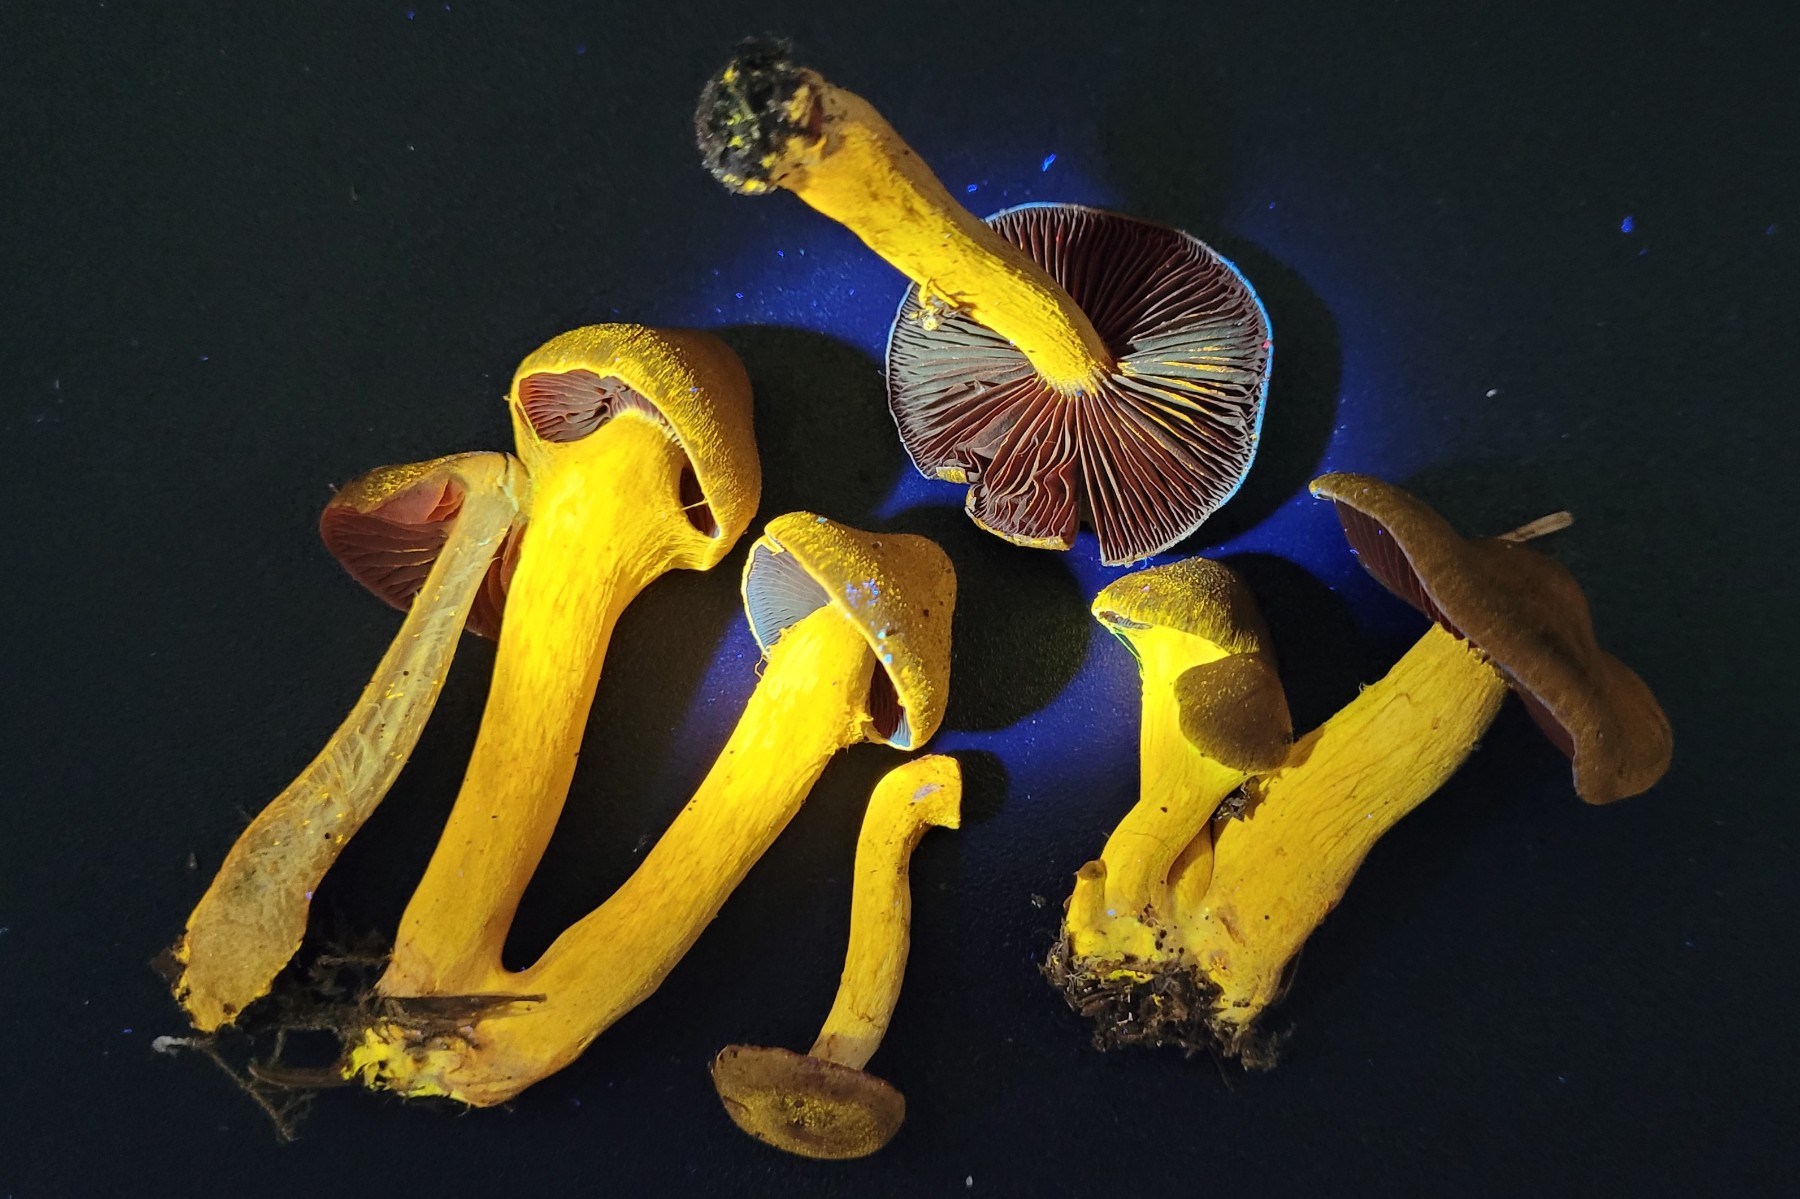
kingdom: Fungi
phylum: Basidiomycota
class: Agaricomycetes
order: Agaricales
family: Cortinariaceae
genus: Cortinarius
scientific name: Cortinarius semisanguineus
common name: Surprise webcap
